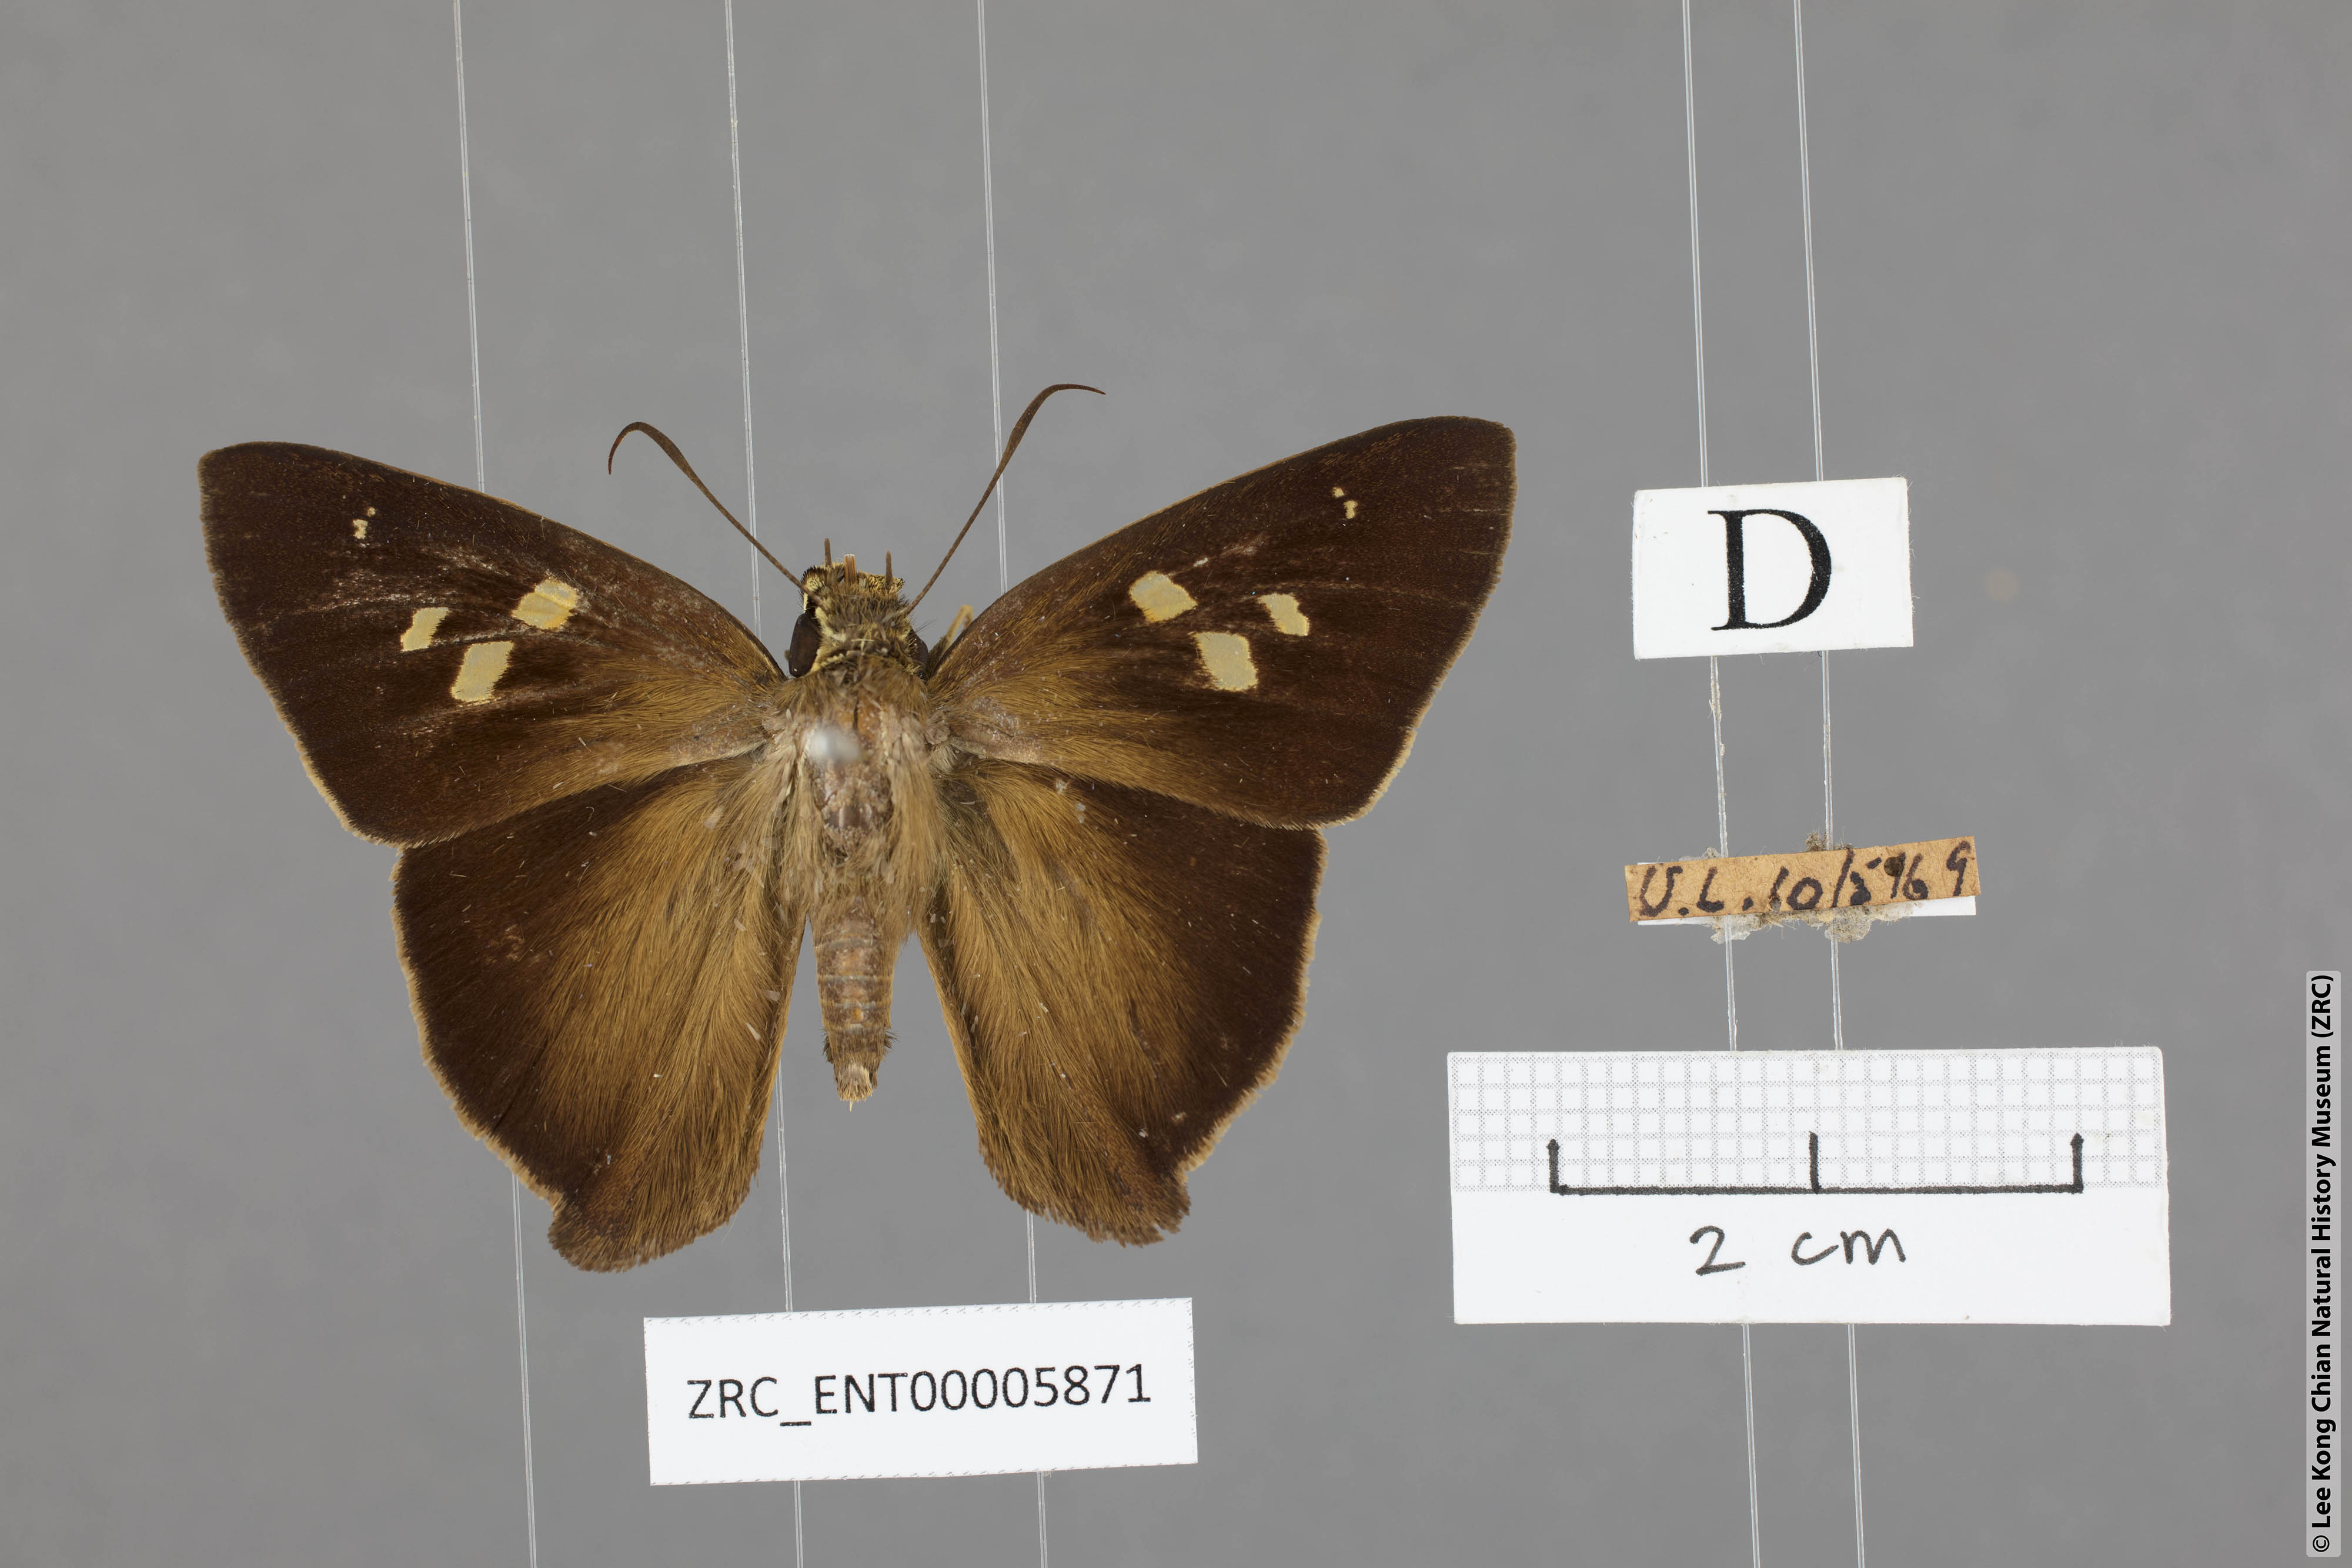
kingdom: Animalia
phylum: Arthropoda
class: Insecta
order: Lepidoptera
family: Hesperiidae
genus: Hasora
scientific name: Hasora badra
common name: Common awl
